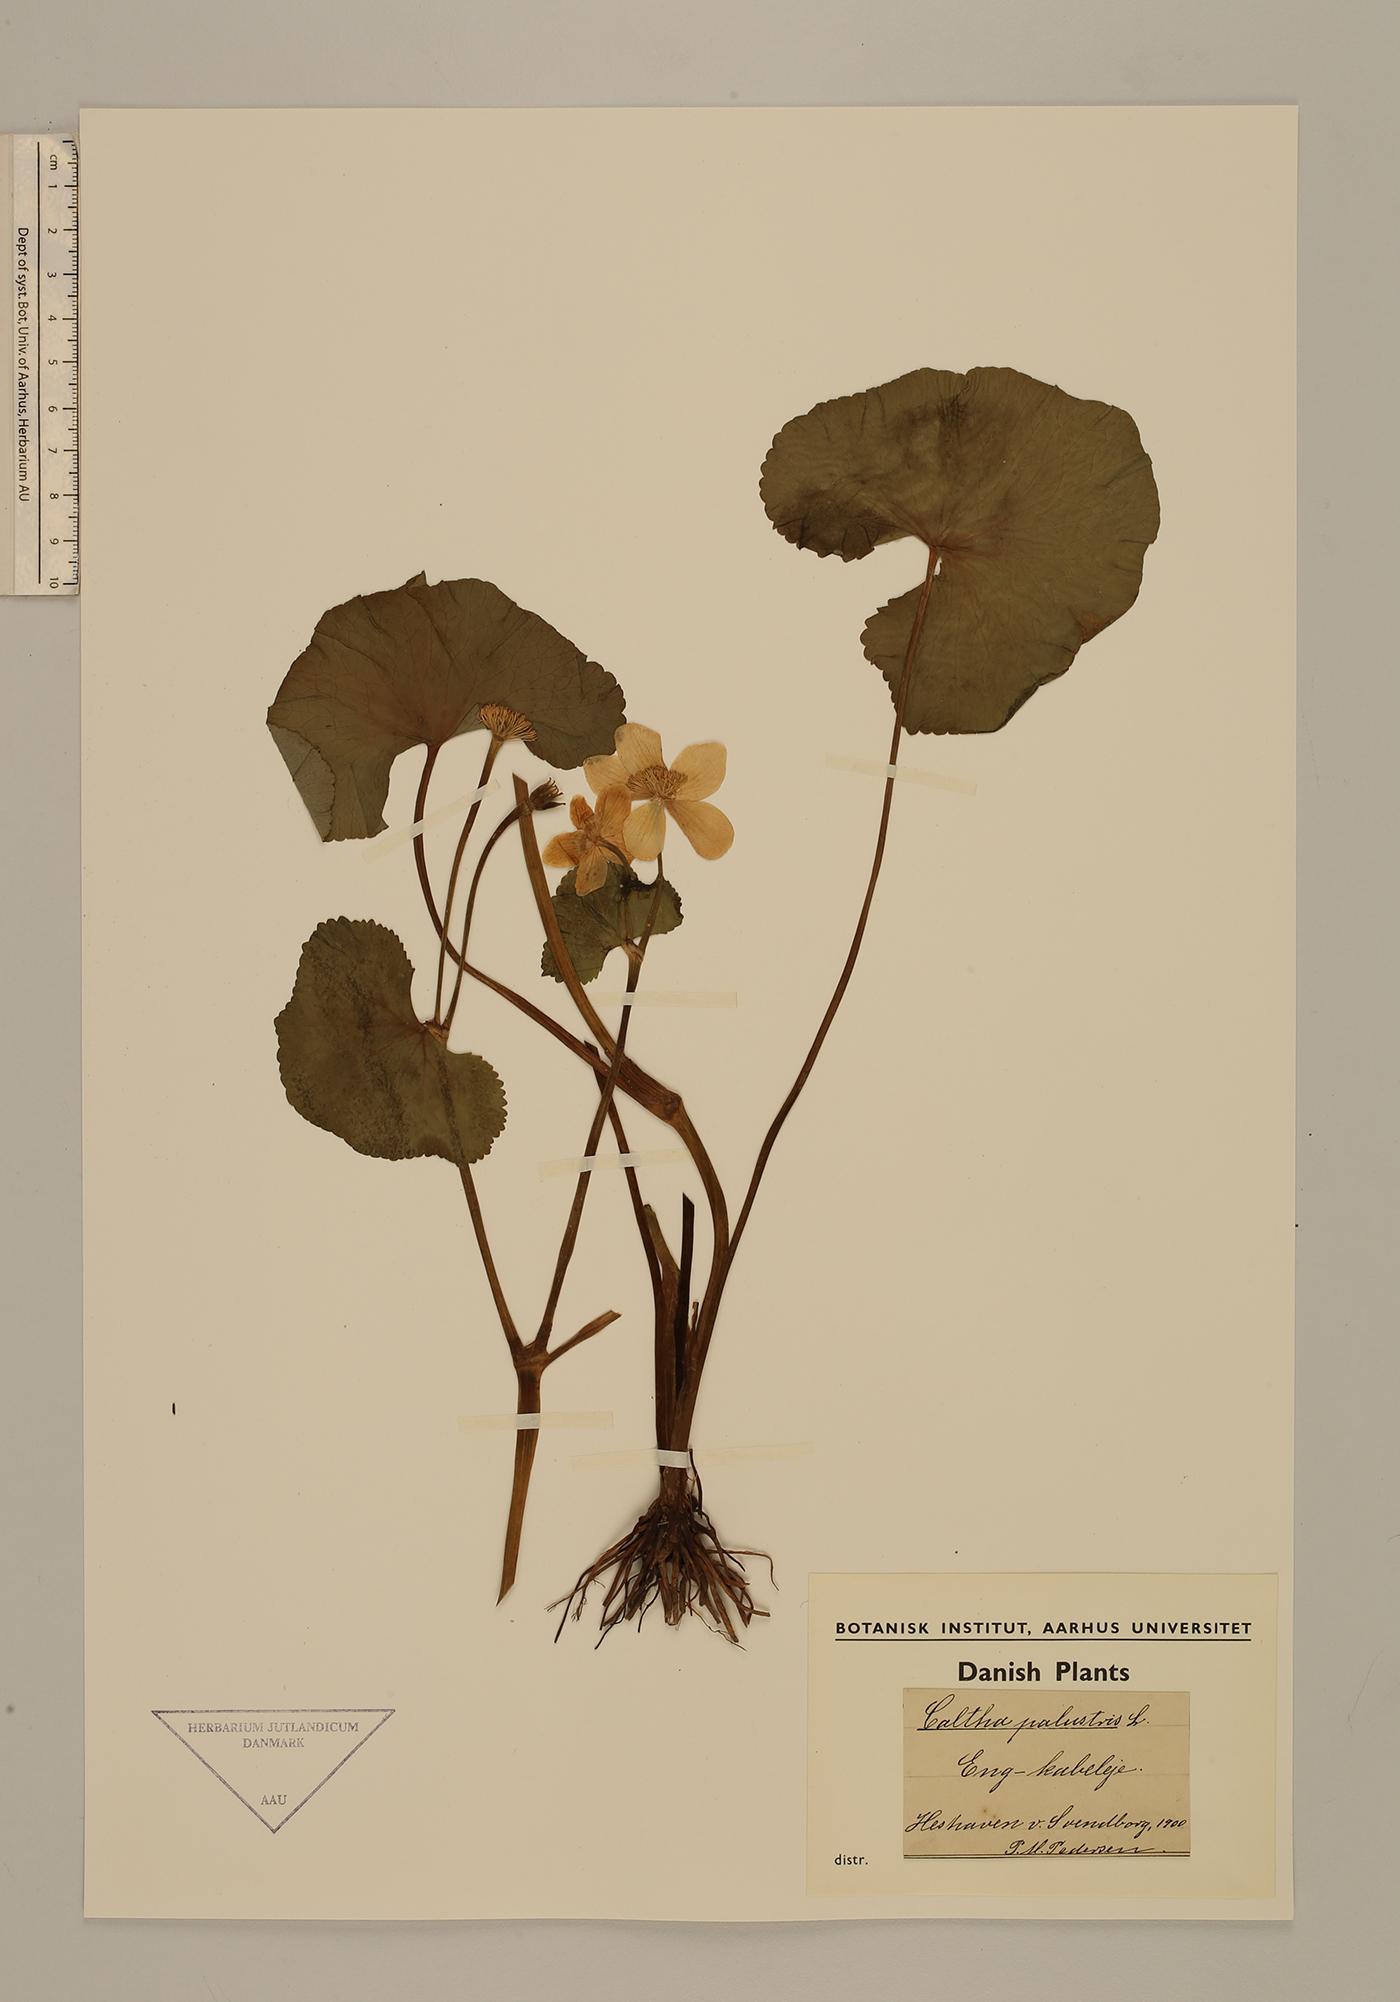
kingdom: Plantae
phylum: Tracheophyta
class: Magnoliopsida
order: Ranunculales
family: Ranunculaceae
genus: Caltha
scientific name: Caltha palustris
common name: Marsh marigold
